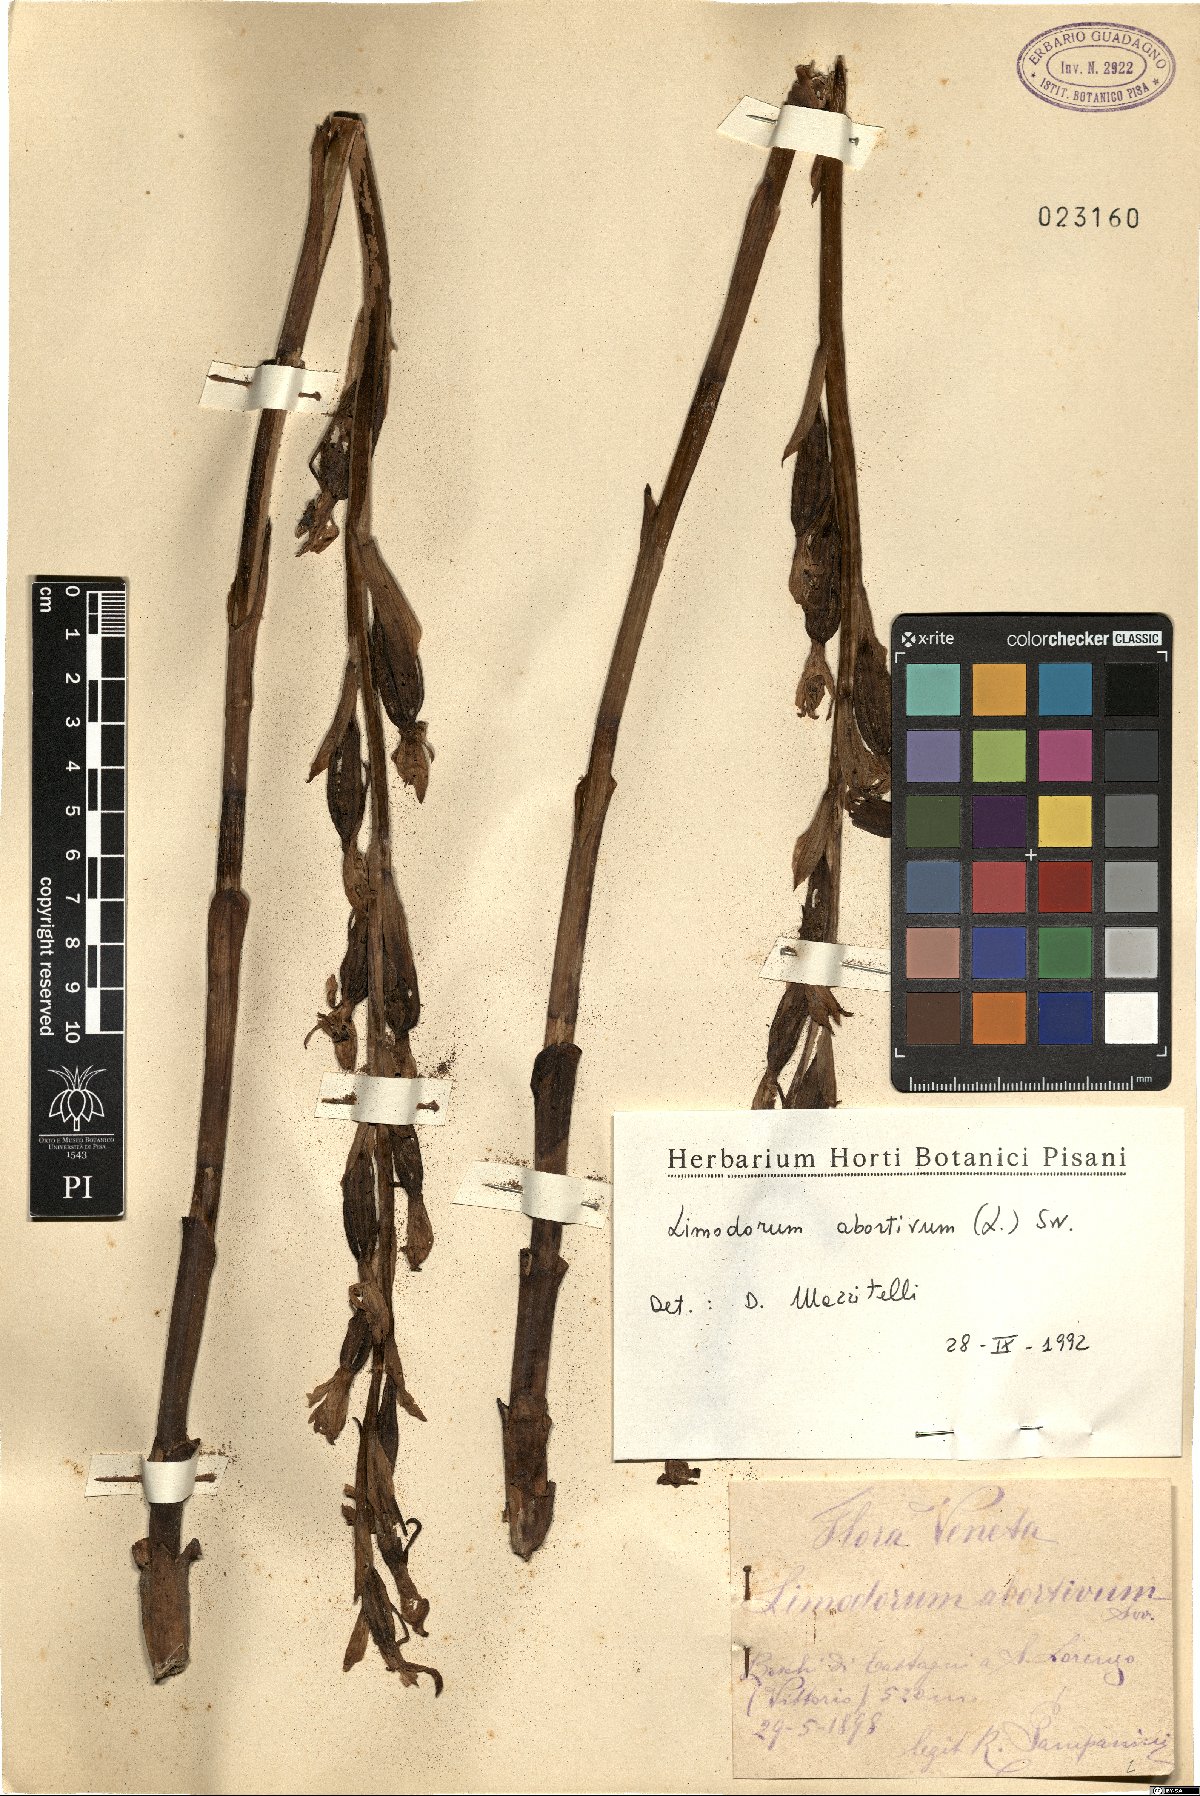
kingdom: Plantae
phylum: Tracheophyta
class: Liliopsida
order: Asparagales
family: Orchidaceae
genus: Limodorum
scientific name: Limodorum abortivum
